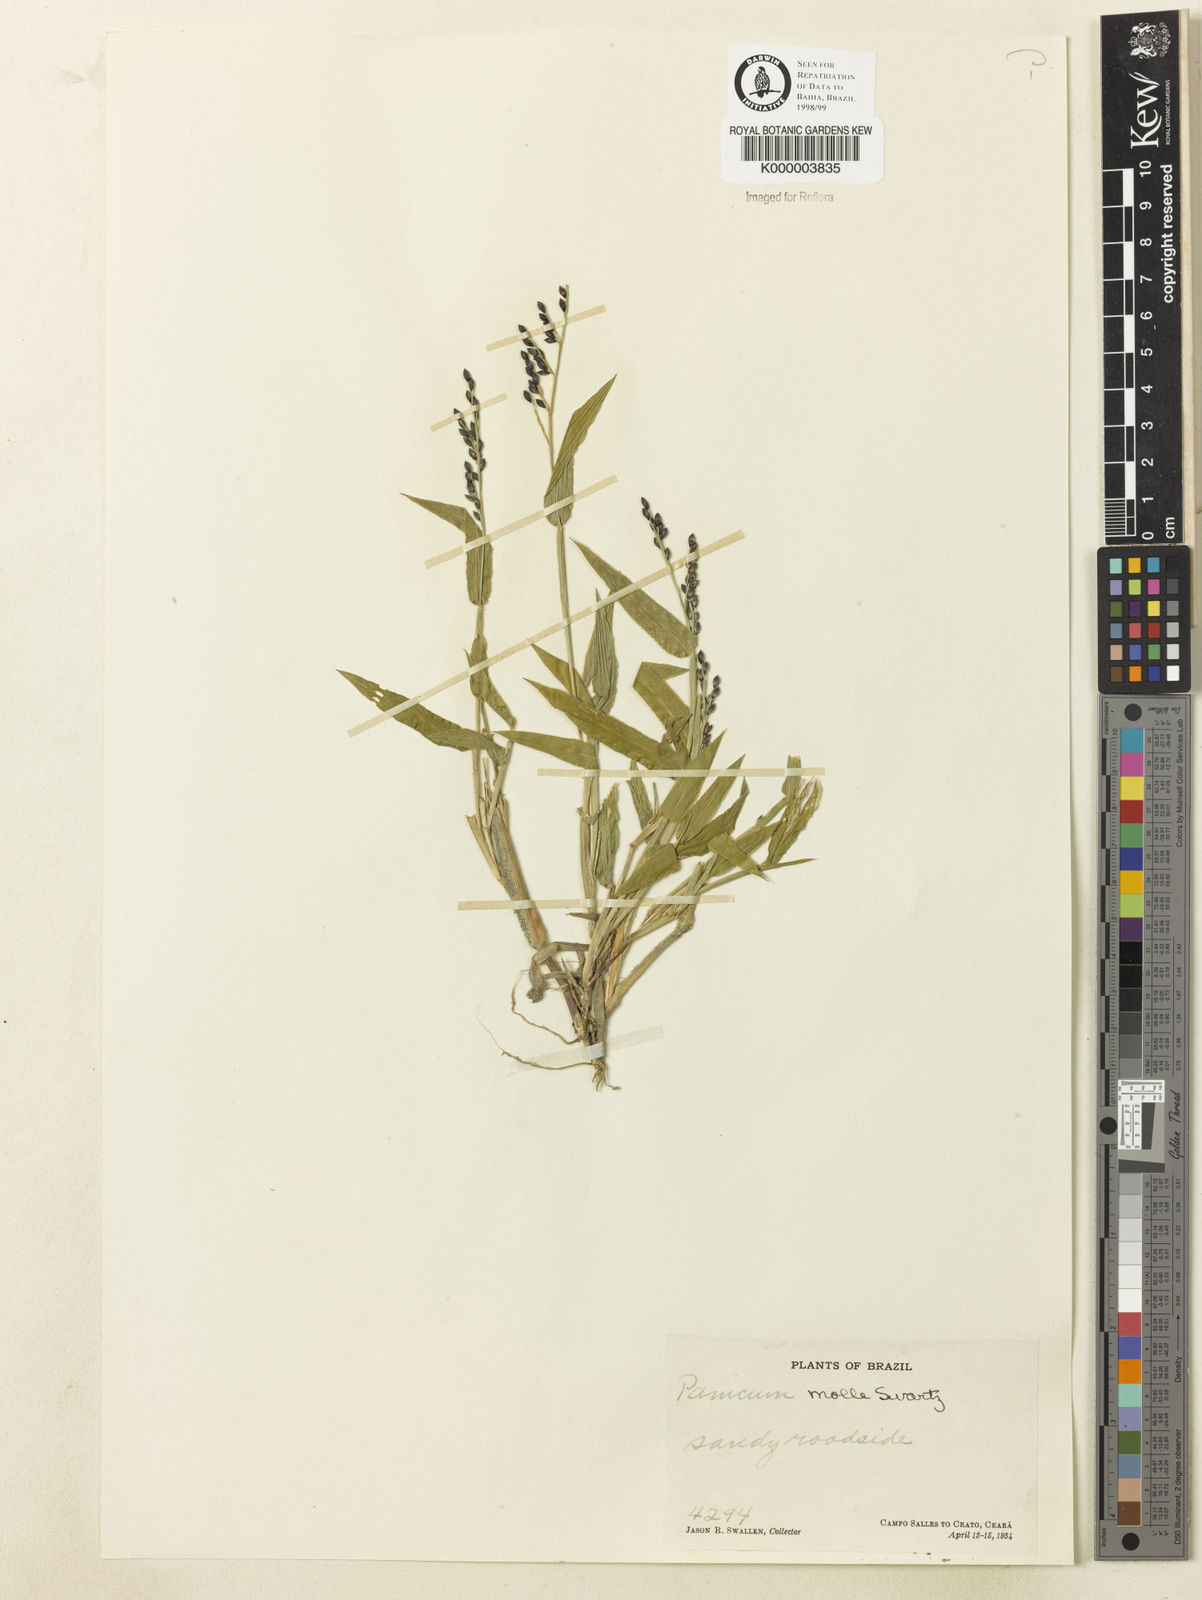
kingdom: Plantae
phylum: Tracheophyta
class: Liliopsida
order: Poales
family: Poaceae
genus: Urochloa
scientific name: Urochloa mollis
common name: Grass
